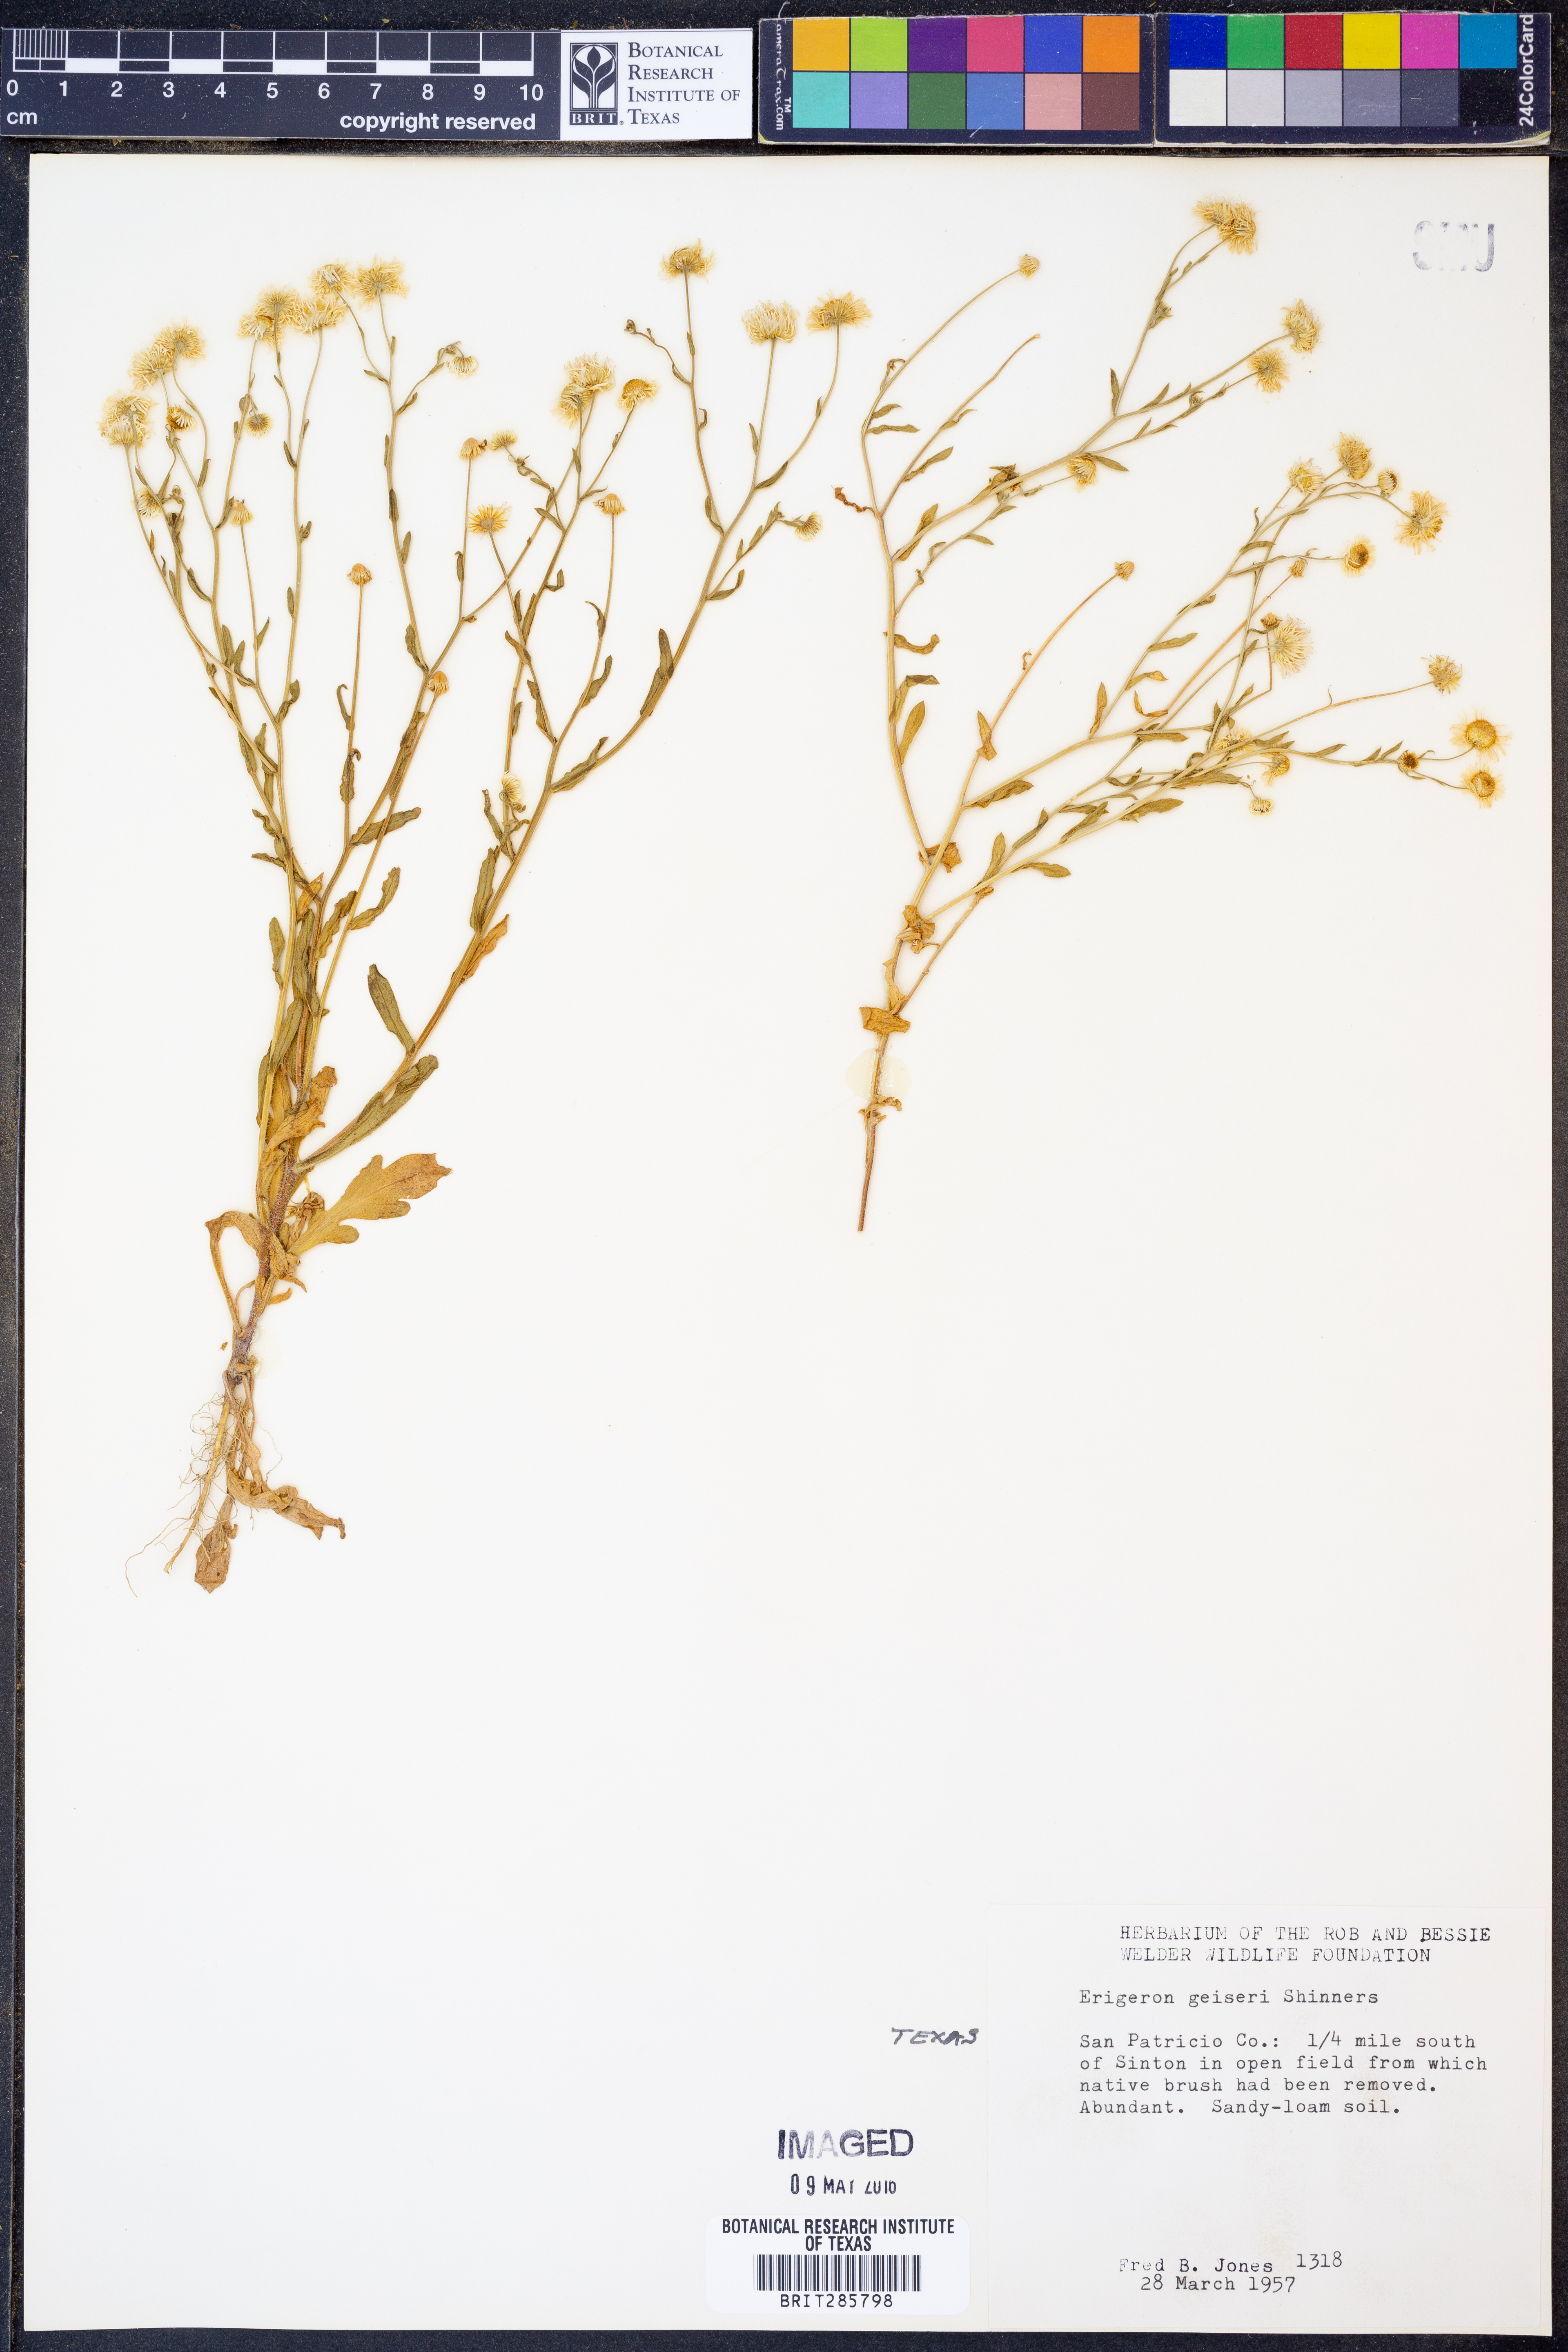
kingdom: Plantae
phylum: Tracheophyta
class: Magnoliopsida
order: Asterales
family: Asteraceae
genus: Erigeron
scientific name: Erigeron geiseri
